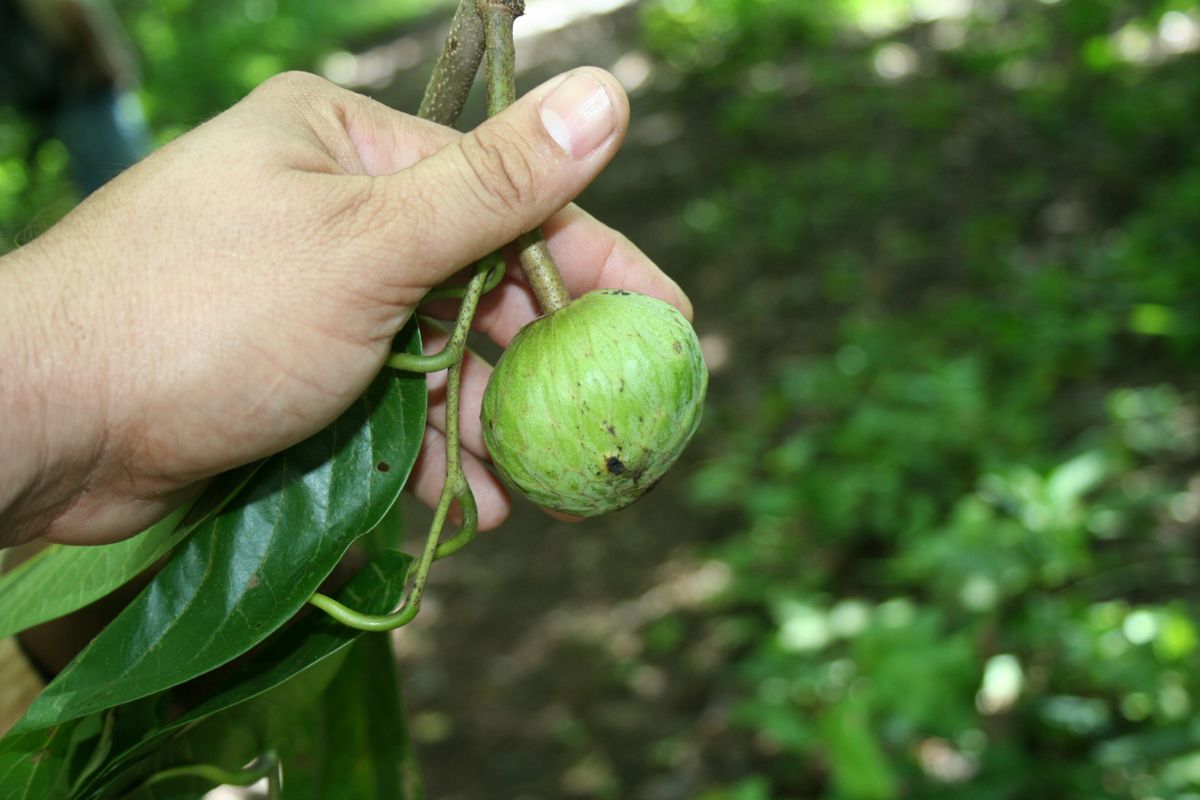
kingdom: Plantae
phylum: Tracheophyta
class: Magnoliopsida
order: Magnoliales
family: Annonaceae
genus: Annona
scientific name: Annona reticulata
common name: Custard apple
